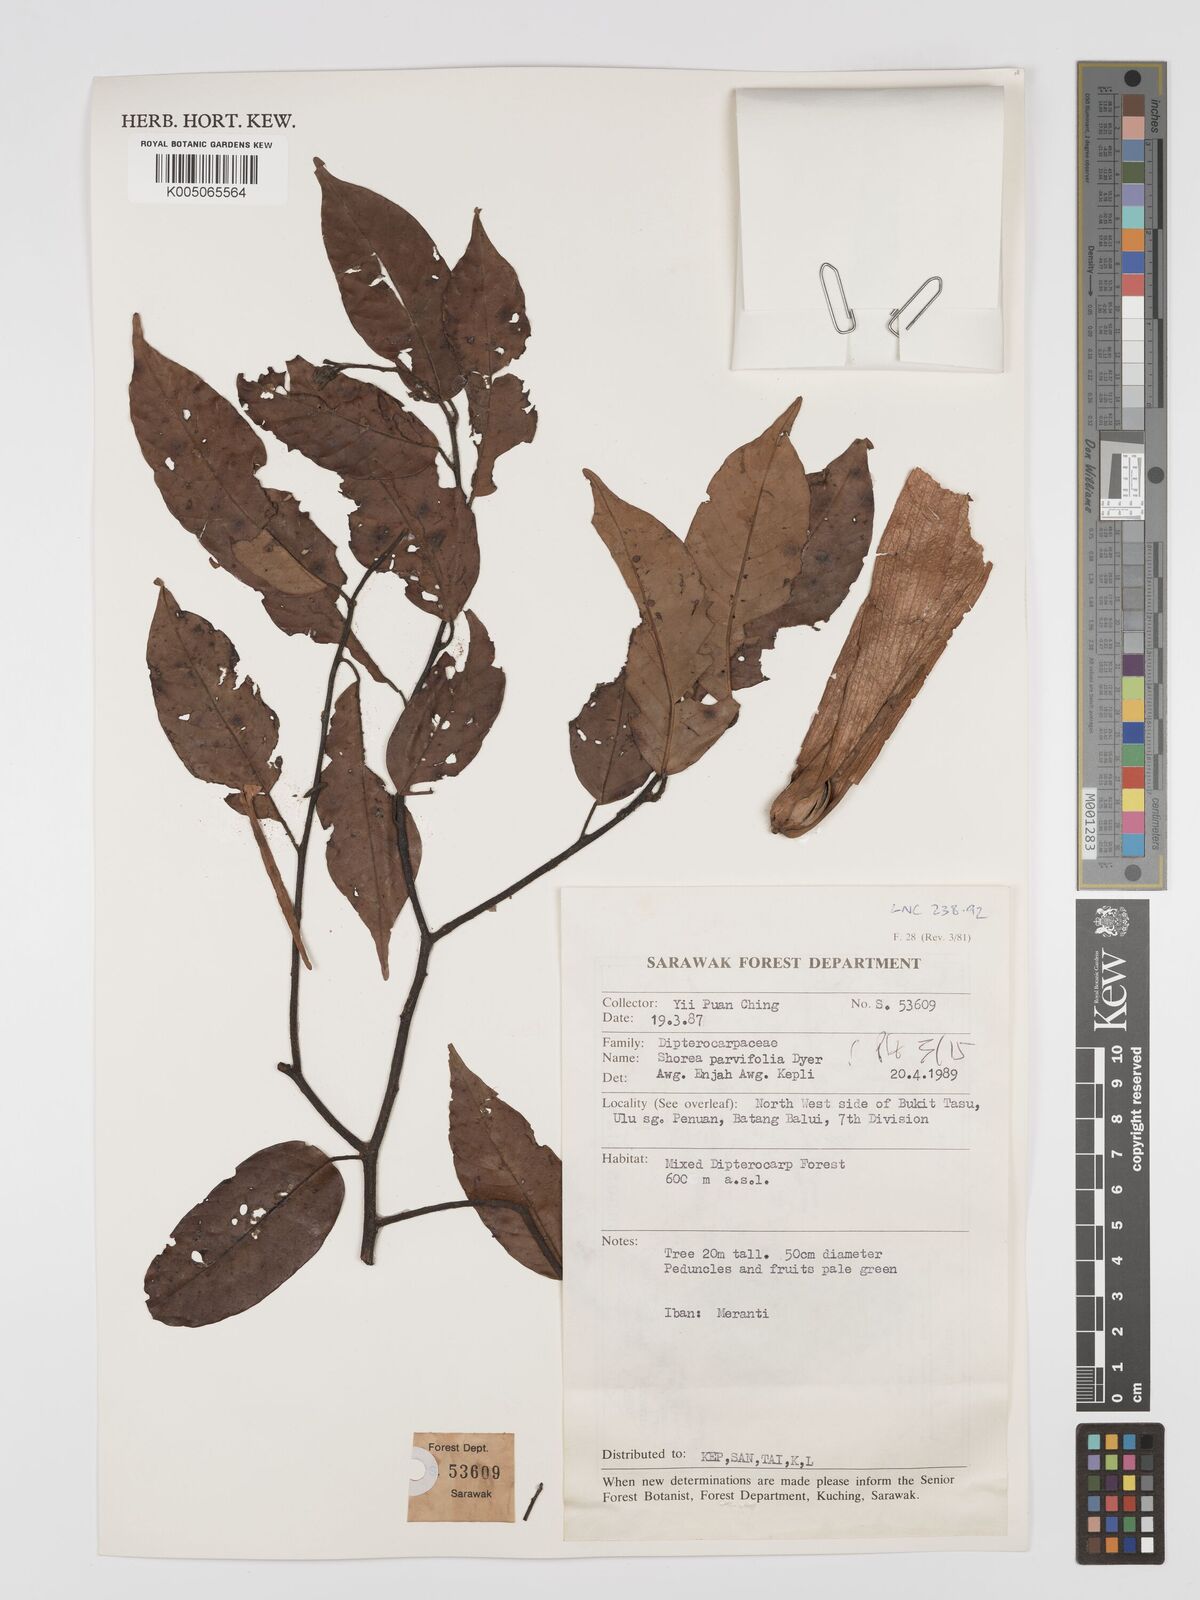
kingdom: Plantae
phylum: Tracheophyta
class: Magnoliopsida
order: Malvales
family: Dipterocarpaceae
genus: Shorea
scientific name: Shorea parvifolia
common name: Light red meranti
